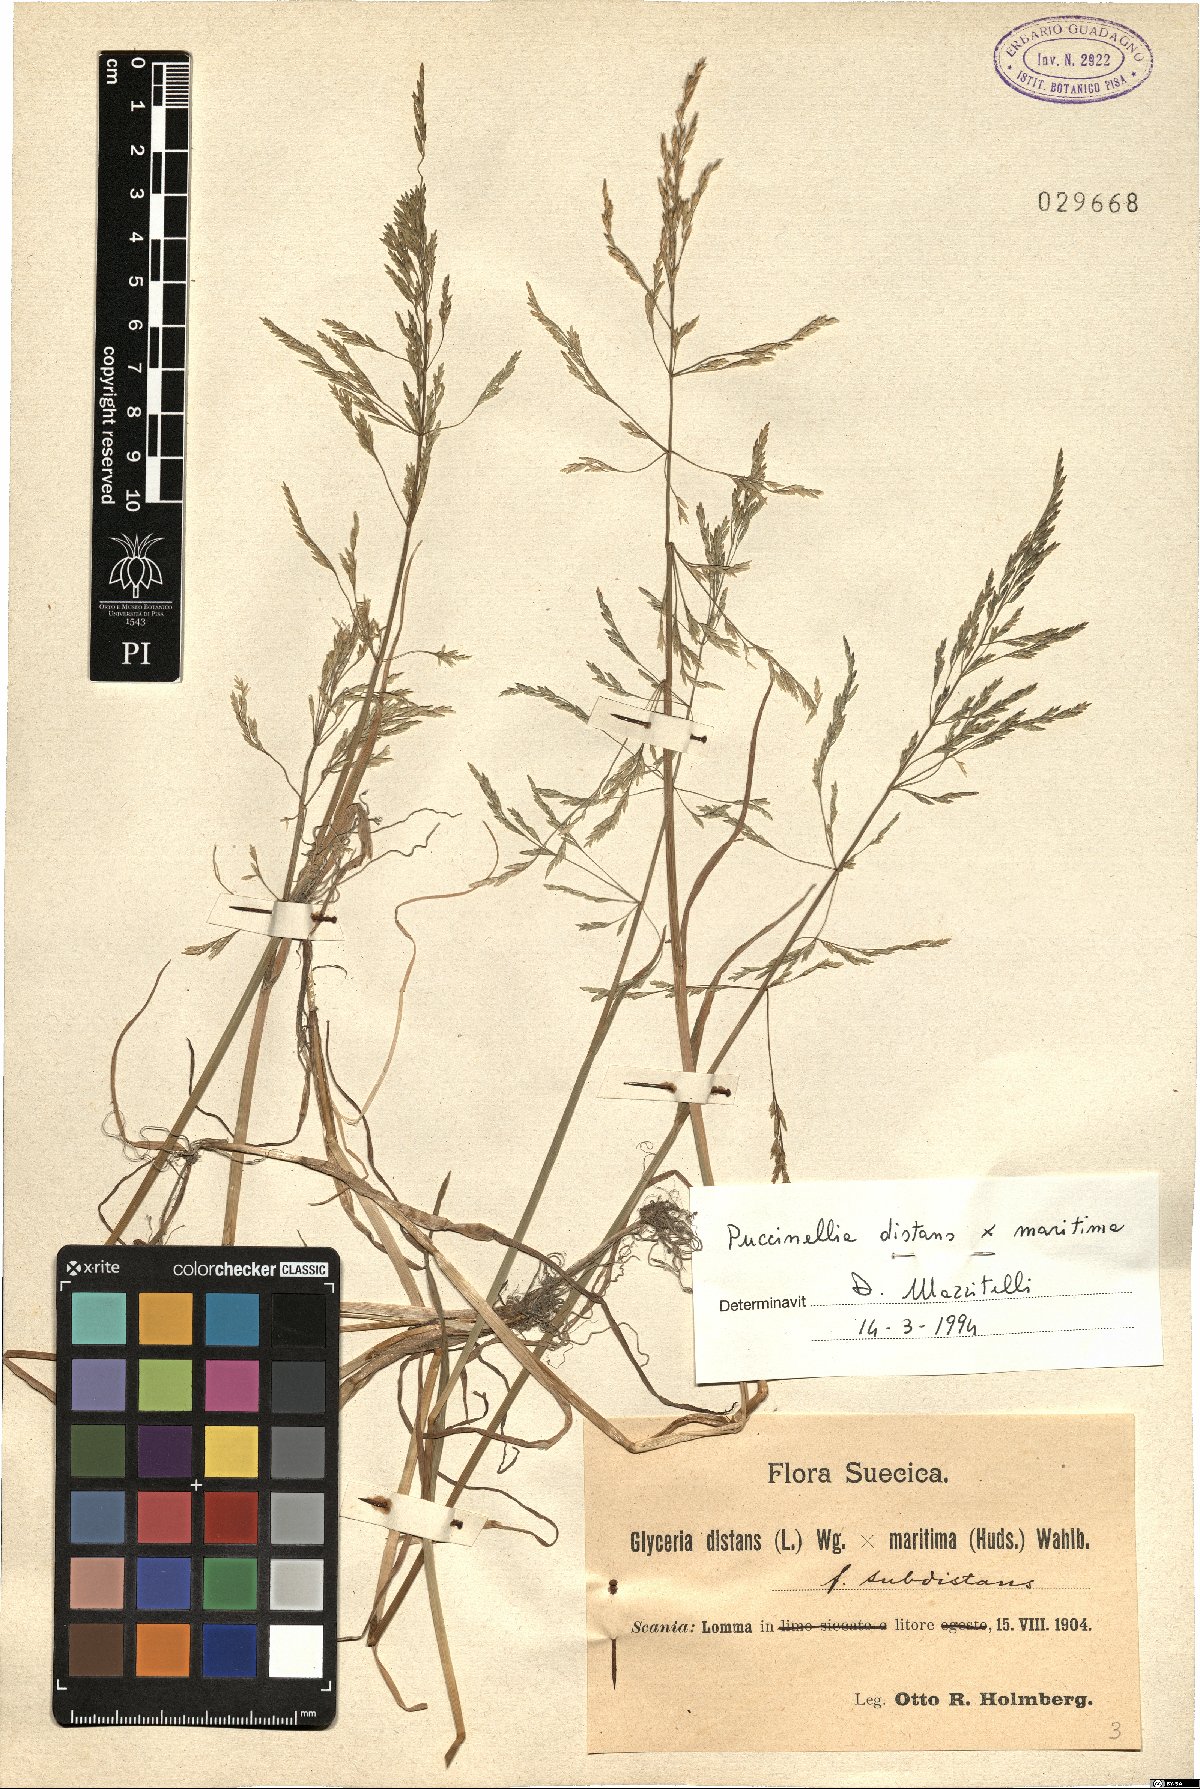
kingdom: Plantae
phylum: Tracheophyta
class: Liliopsida
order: Poales
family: Poaceae
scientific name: Poaceae
